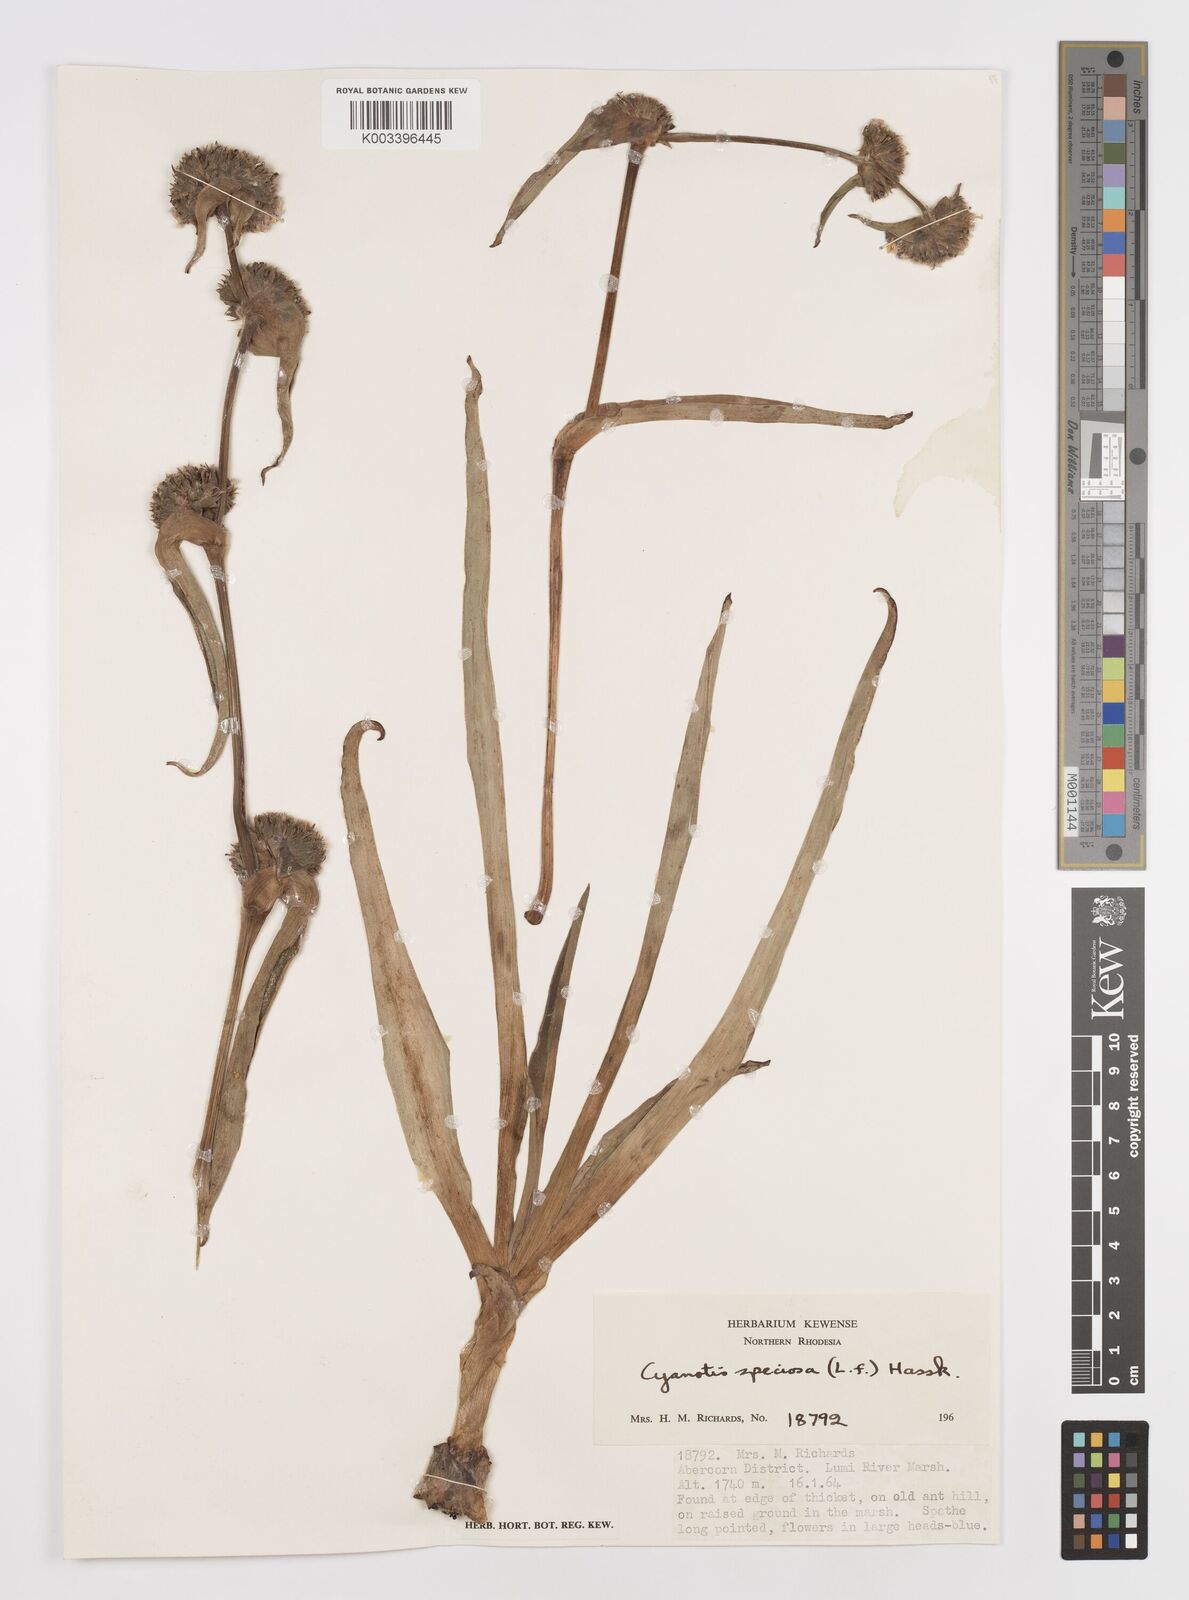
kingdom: Plantae
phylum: Tracheophyta
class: Liliopsida
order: Commelinales
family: Commelinaceae
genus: Cyanotis
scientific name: Cyanotis speciosa
